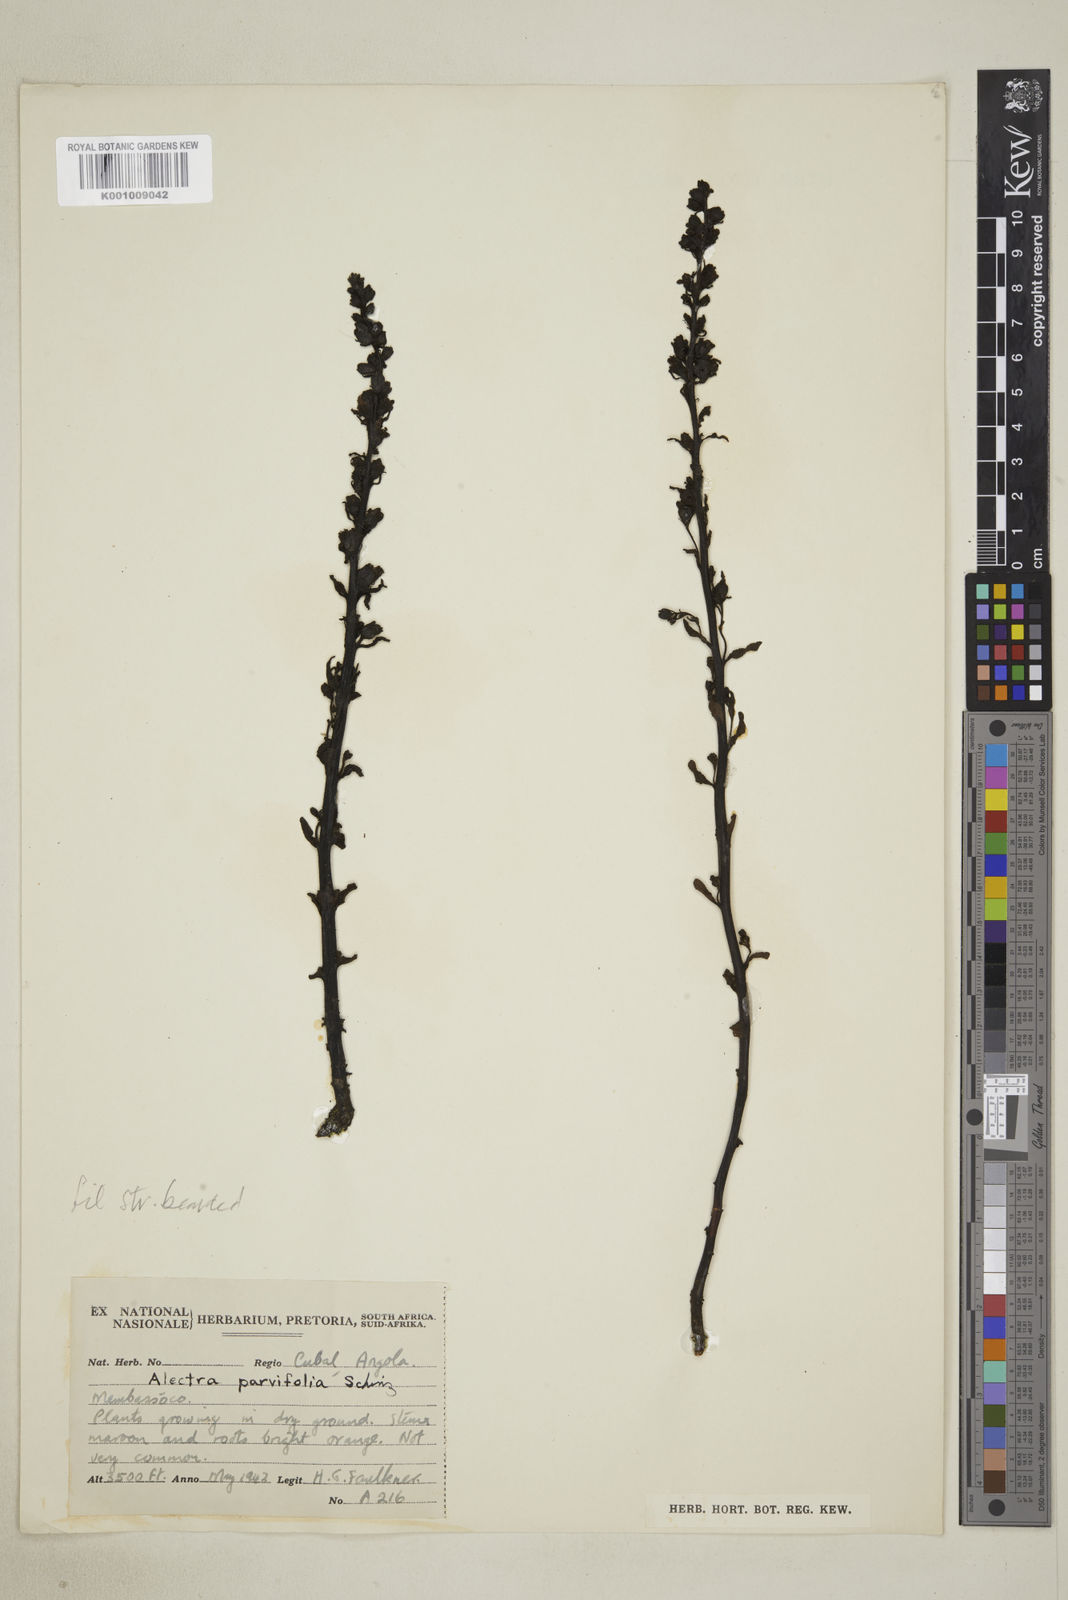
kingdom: Plantae
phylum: Tracheophyta
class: Magnoliopsida
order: Lamiales
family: Orobanchaceae
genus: Alectra
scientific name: Alectra orobanchoides
